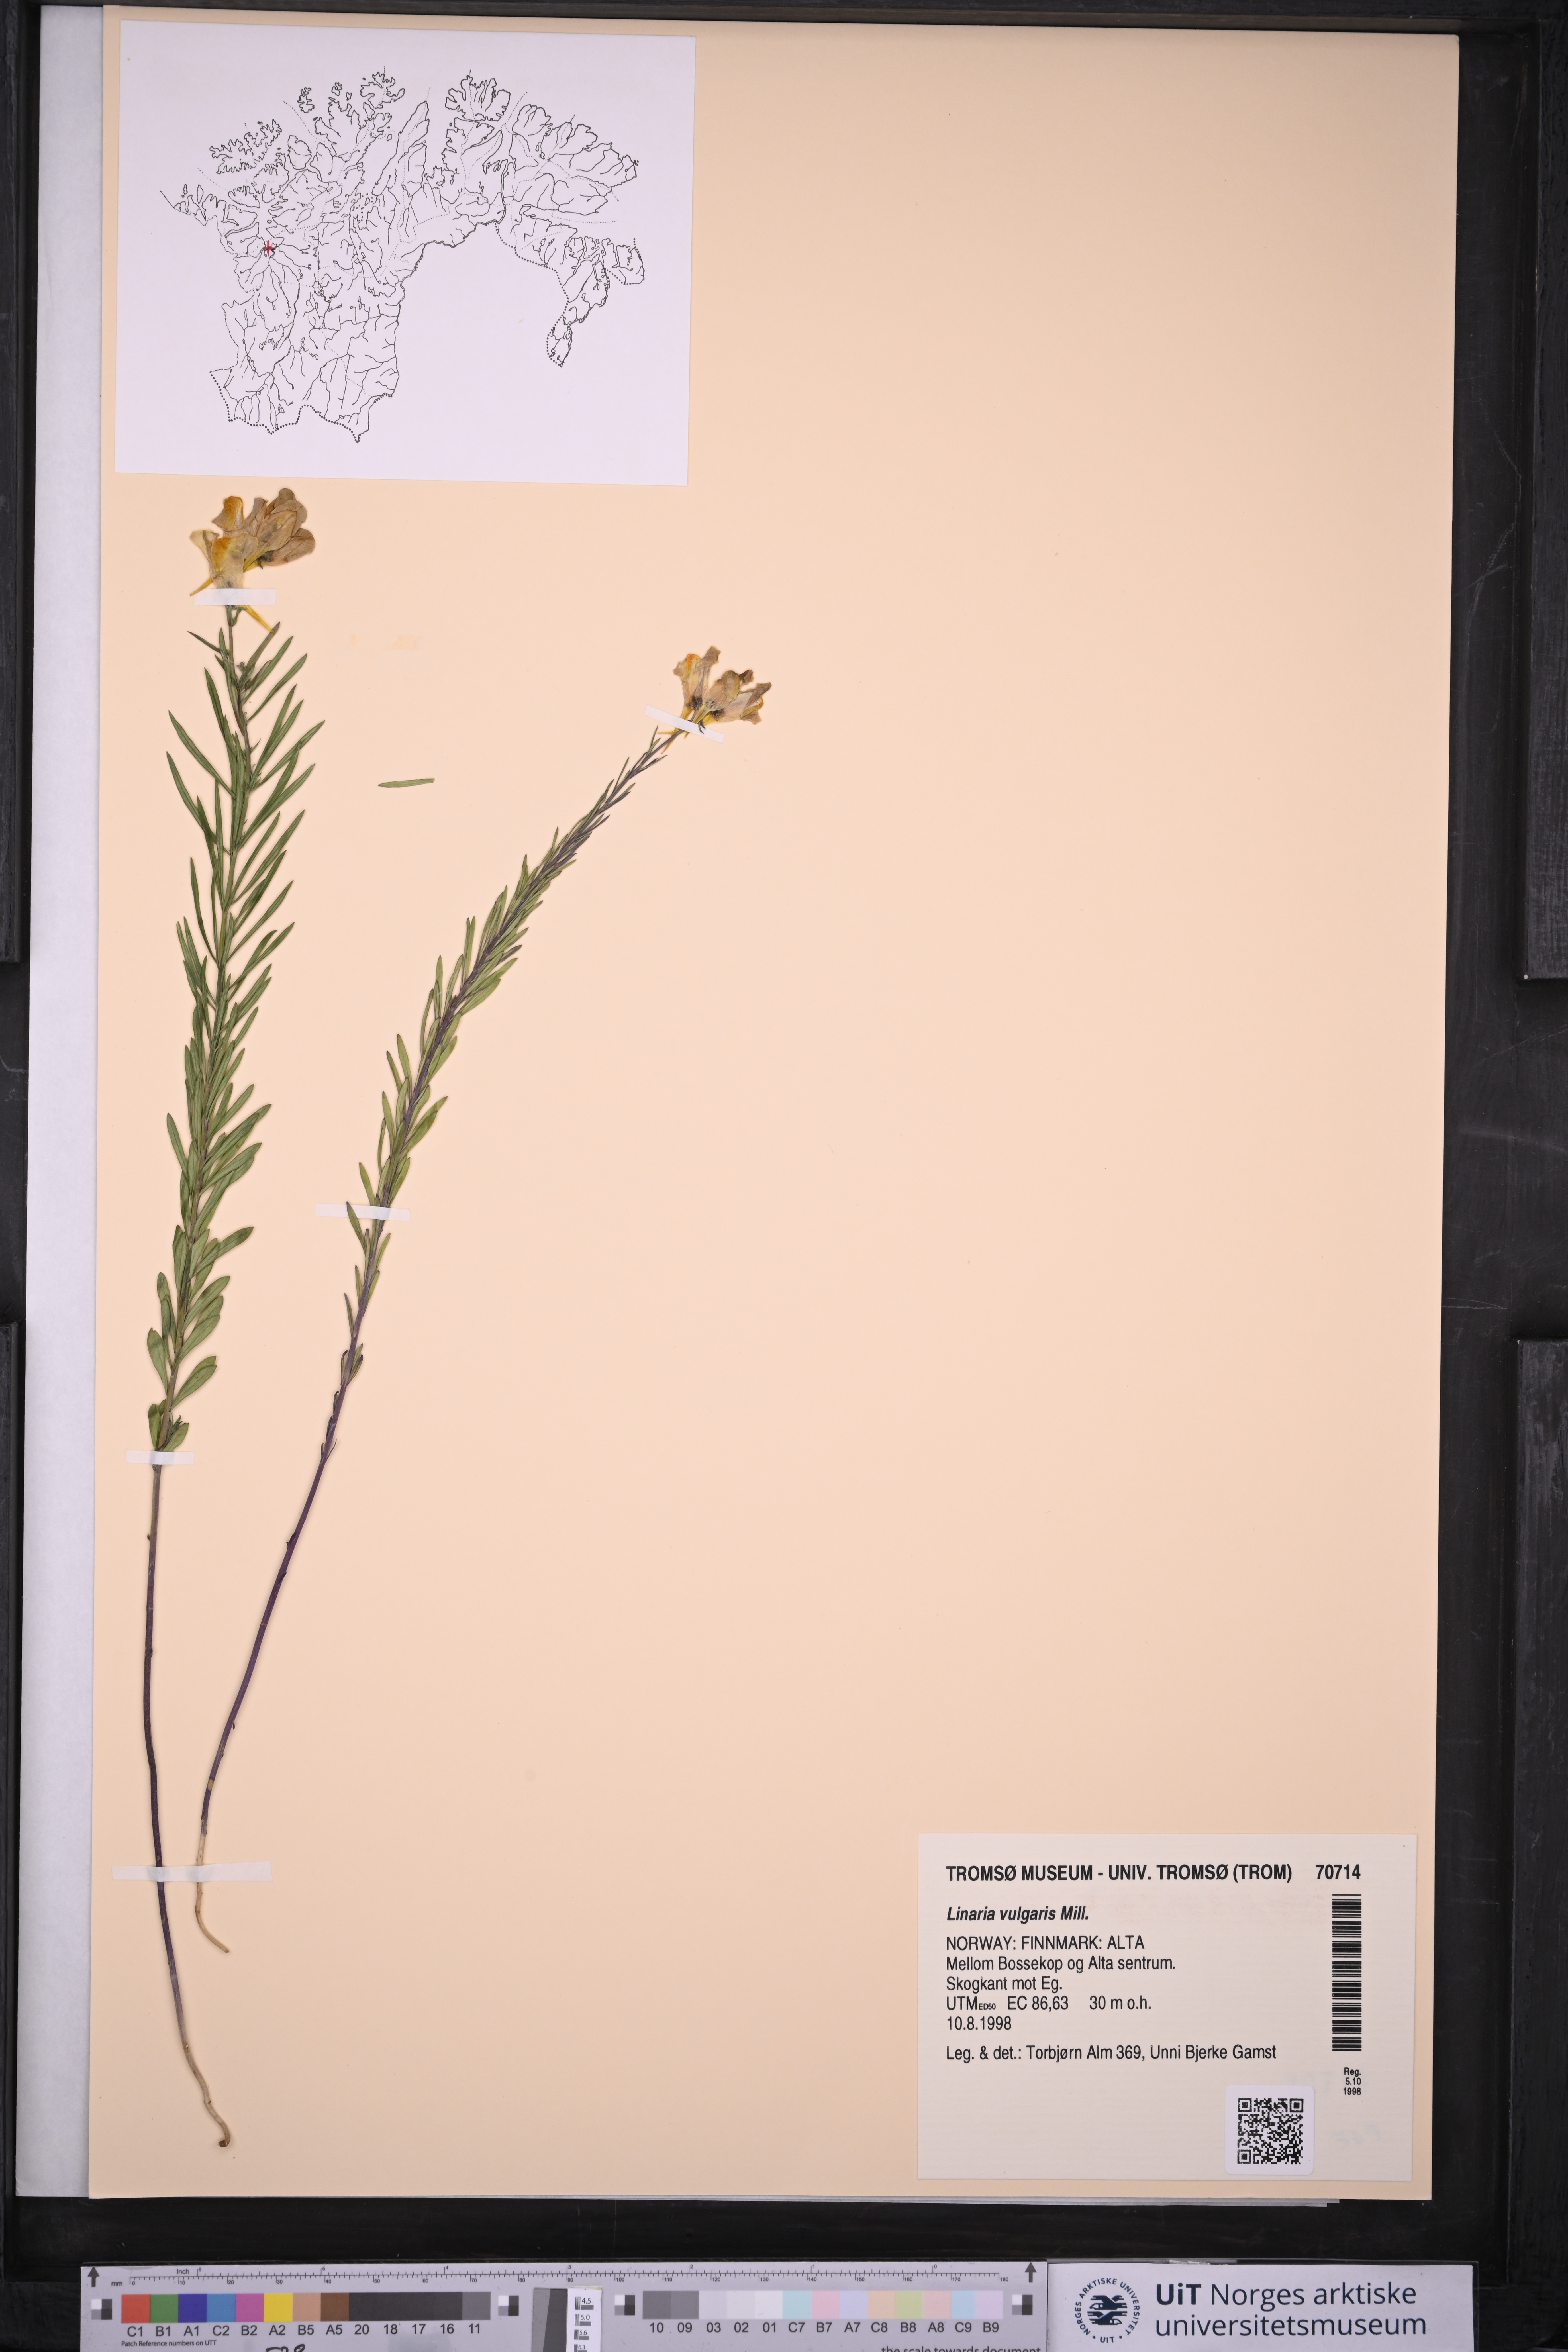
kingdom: Plantae
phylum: Tracheophyta
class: Magnoliopsida
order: Lamiales
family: Plantaginaceae
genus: Linaria
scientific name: Linaria vulgaris
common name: Butter and eggs
